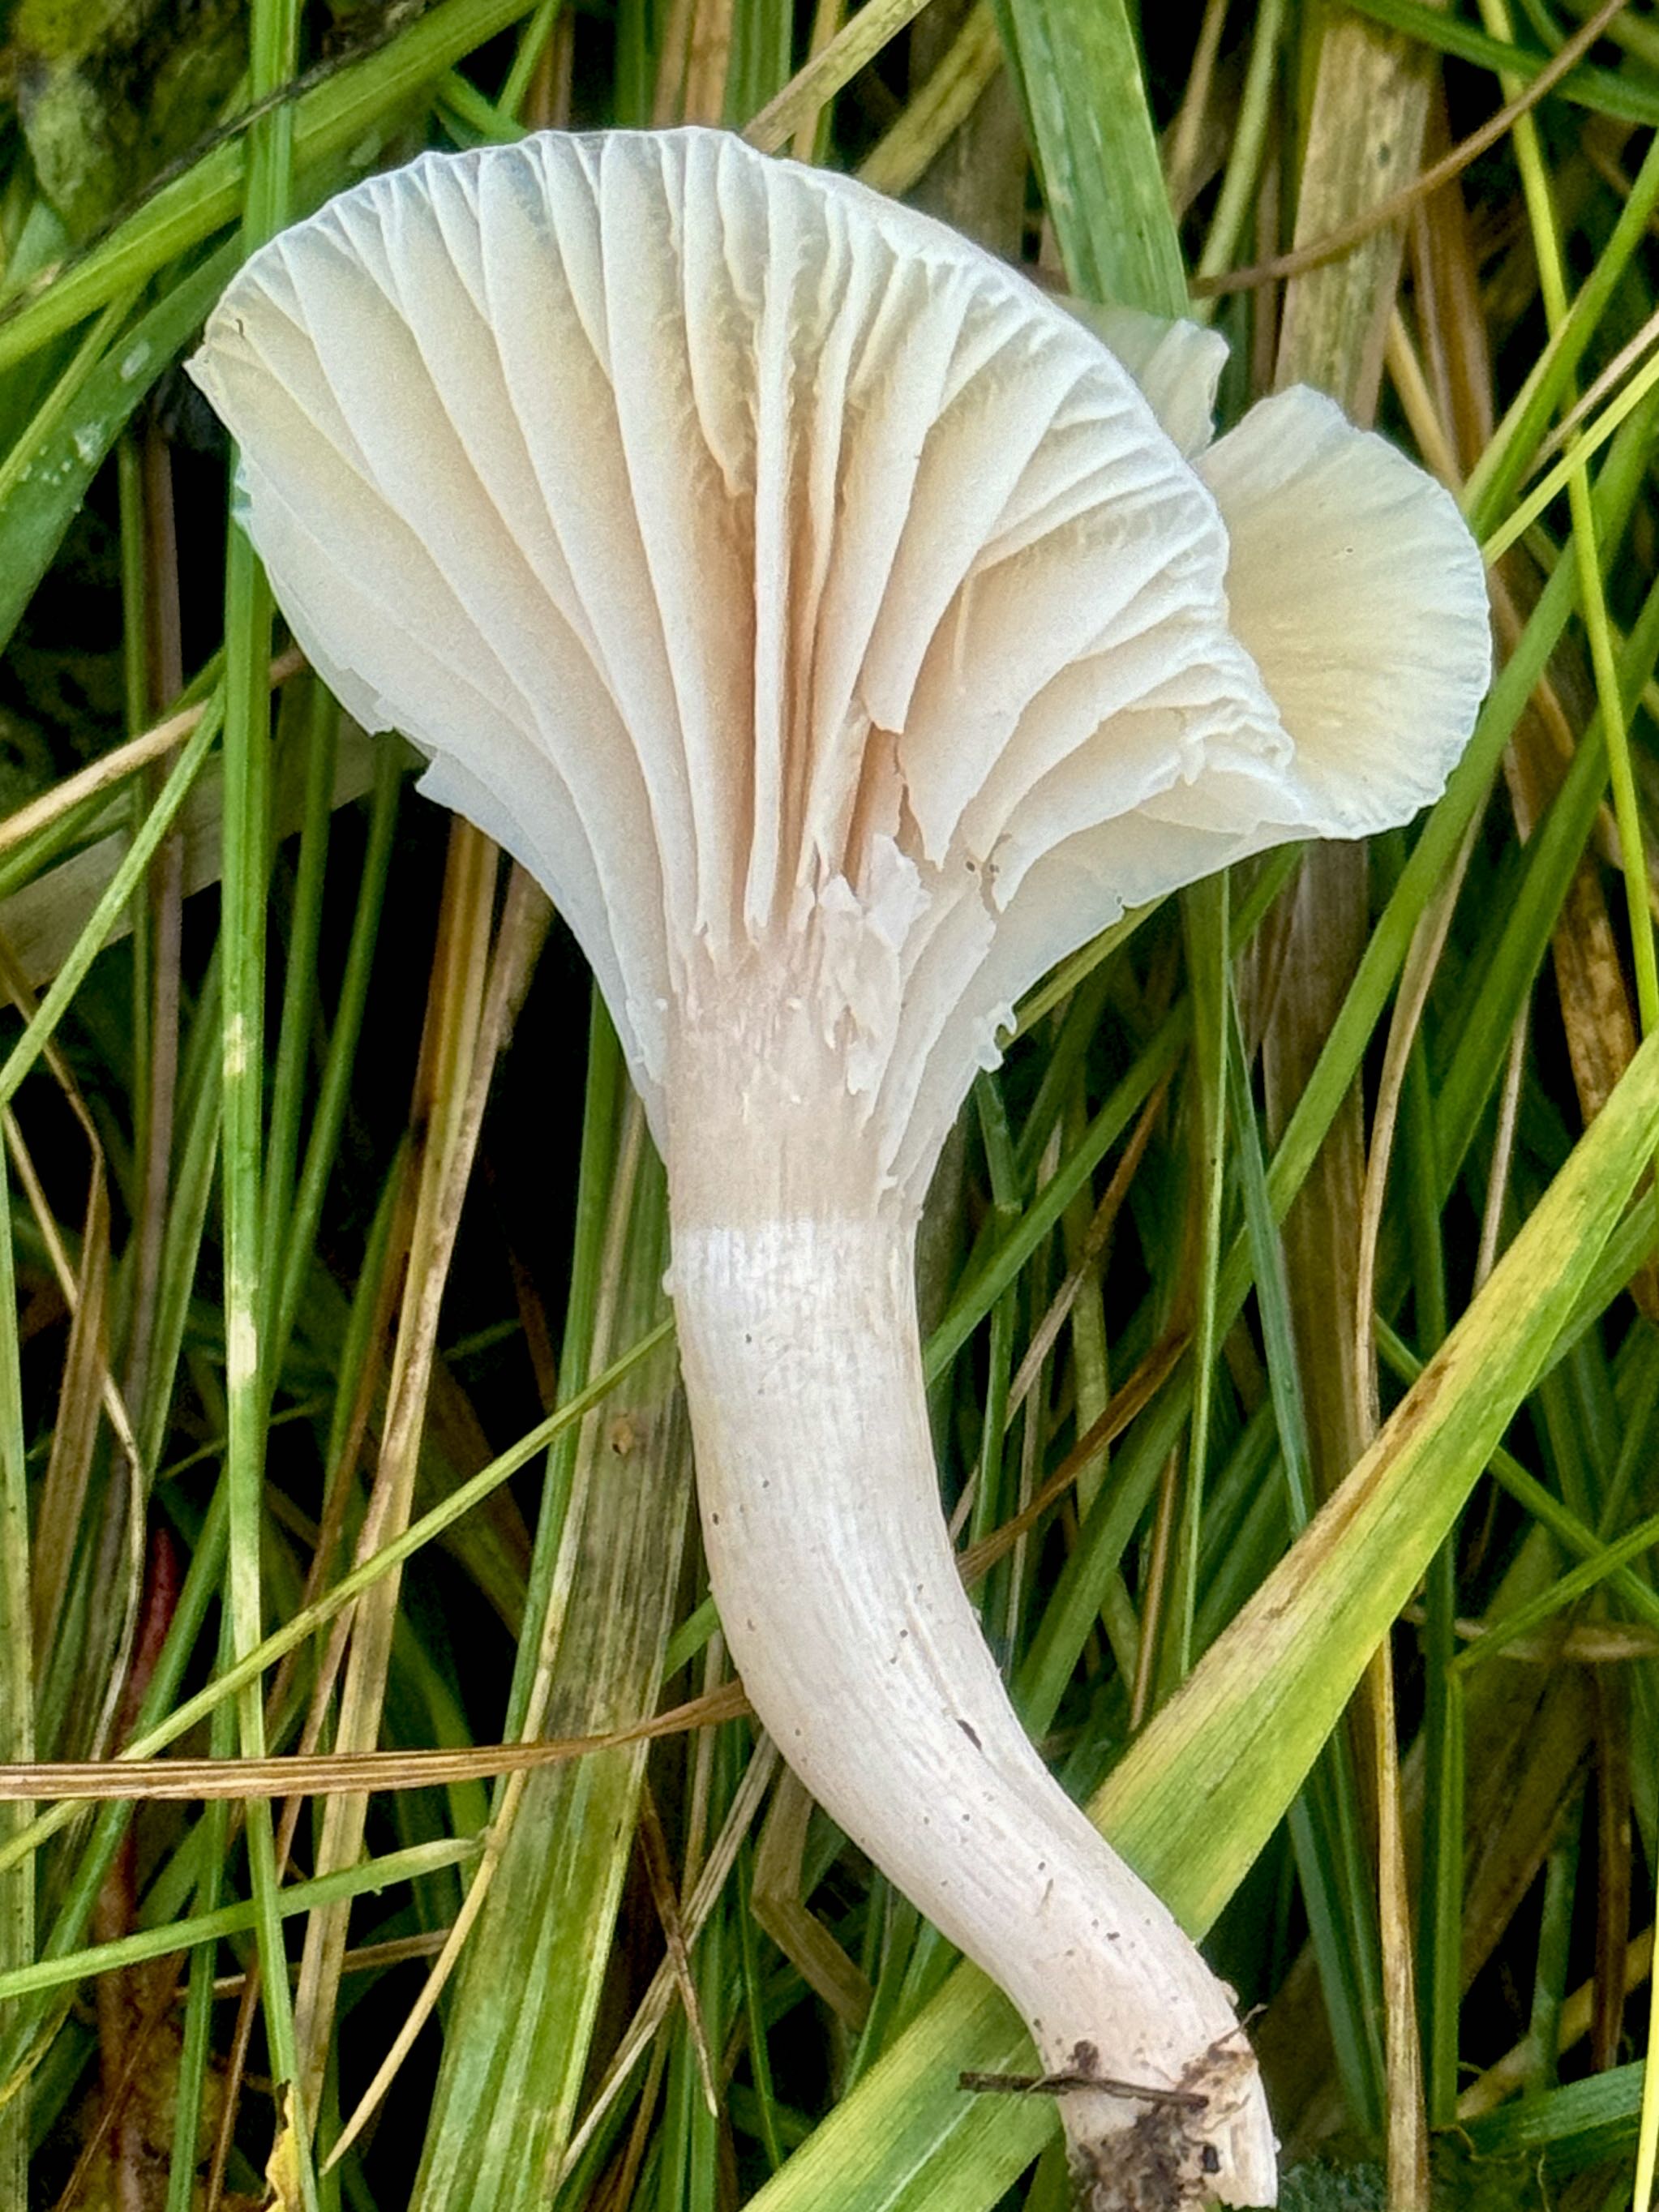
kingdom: Fungi
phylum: Basidiomycota
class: Agaricomycetes
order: Agaricales
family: Hygrophoraceae
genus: Cuphophyllus
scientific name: Cuphophyllus virgineus
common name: snehvid vokshat
